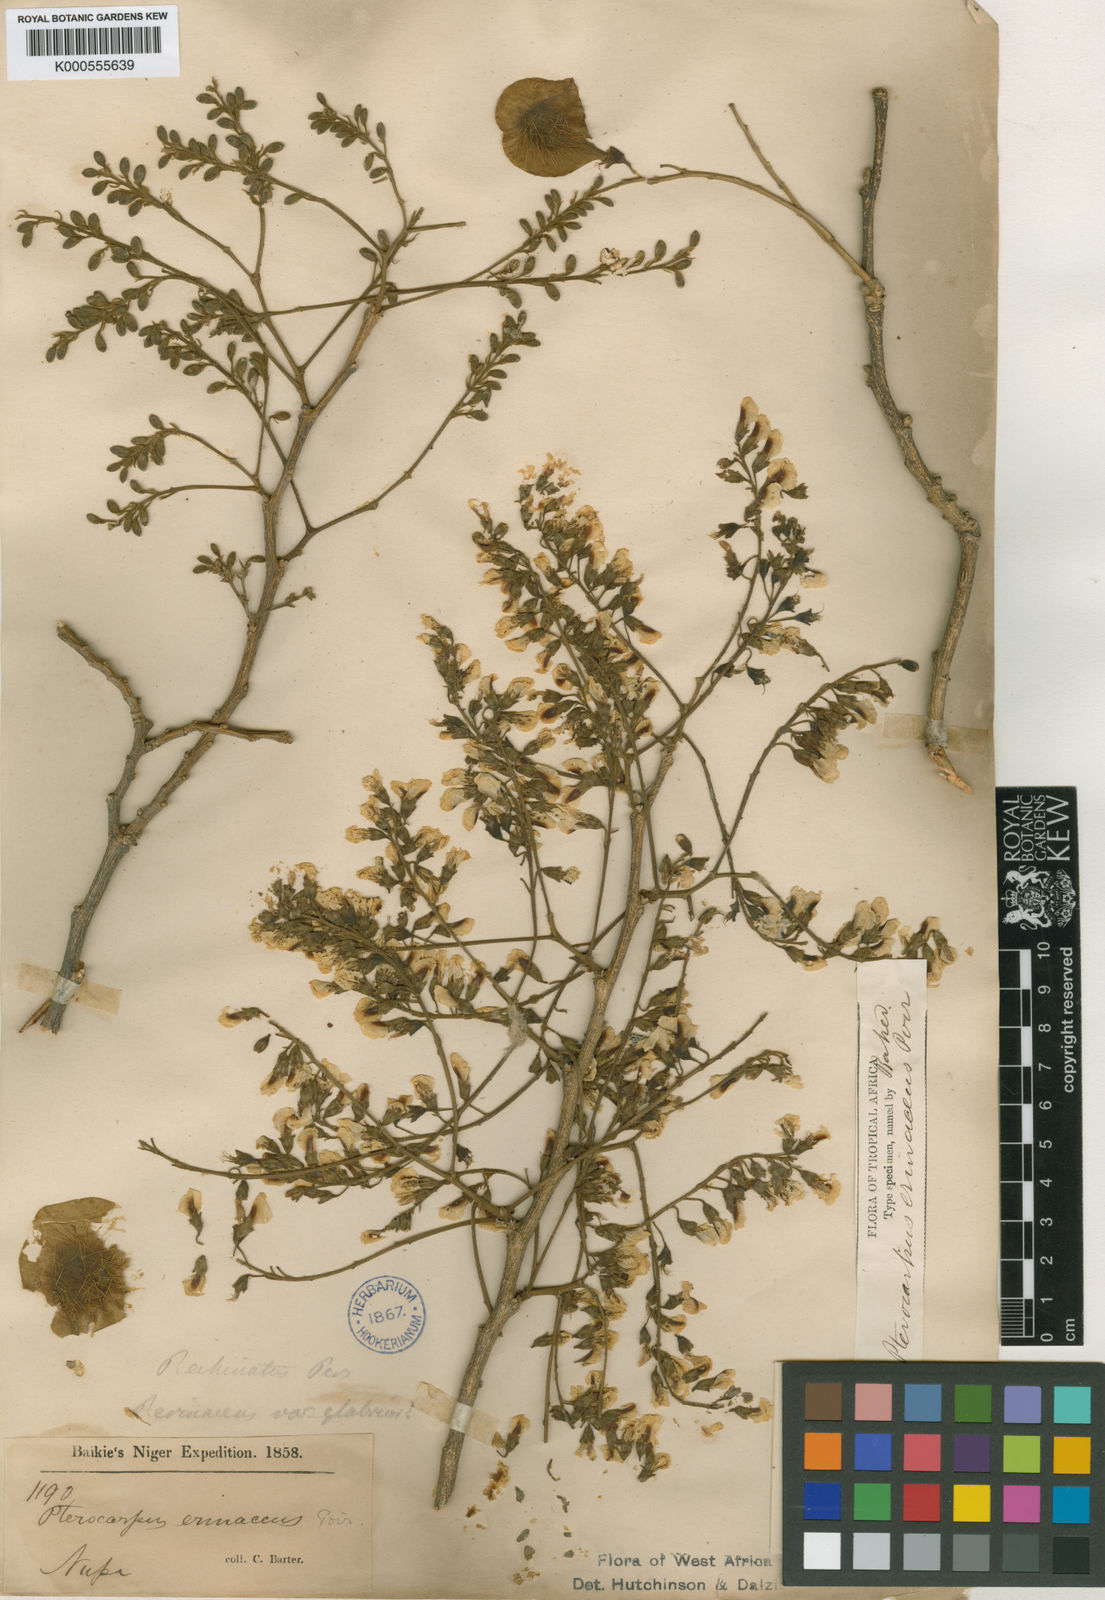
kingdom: Plantae
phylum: Tracheophyta
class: Magnoliopsida
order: Fabales
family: Fabaceae
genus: Pterocarpus
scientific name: Pterocarpus erinaceus
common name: African rosewood
